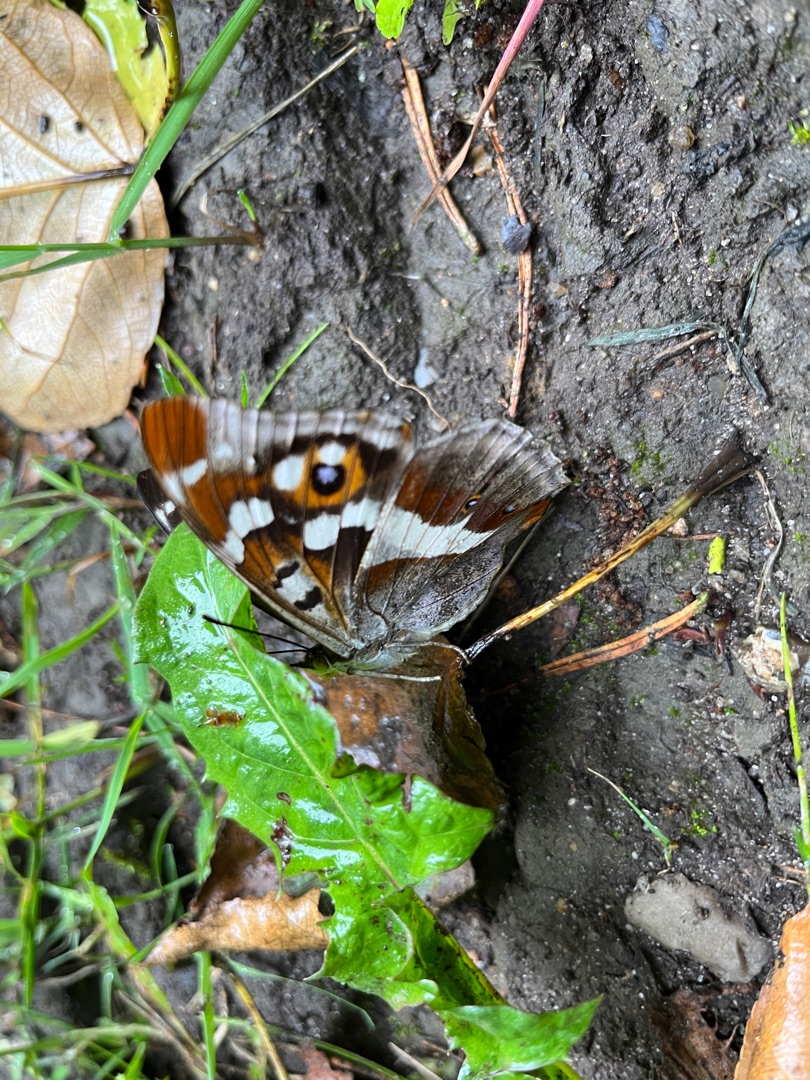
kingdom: Animalia
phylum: Arthropoda
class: Insecta
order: Lepidoptera
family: Nymphalidae
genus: Apatura
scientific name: Apatura iris
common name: Iris
